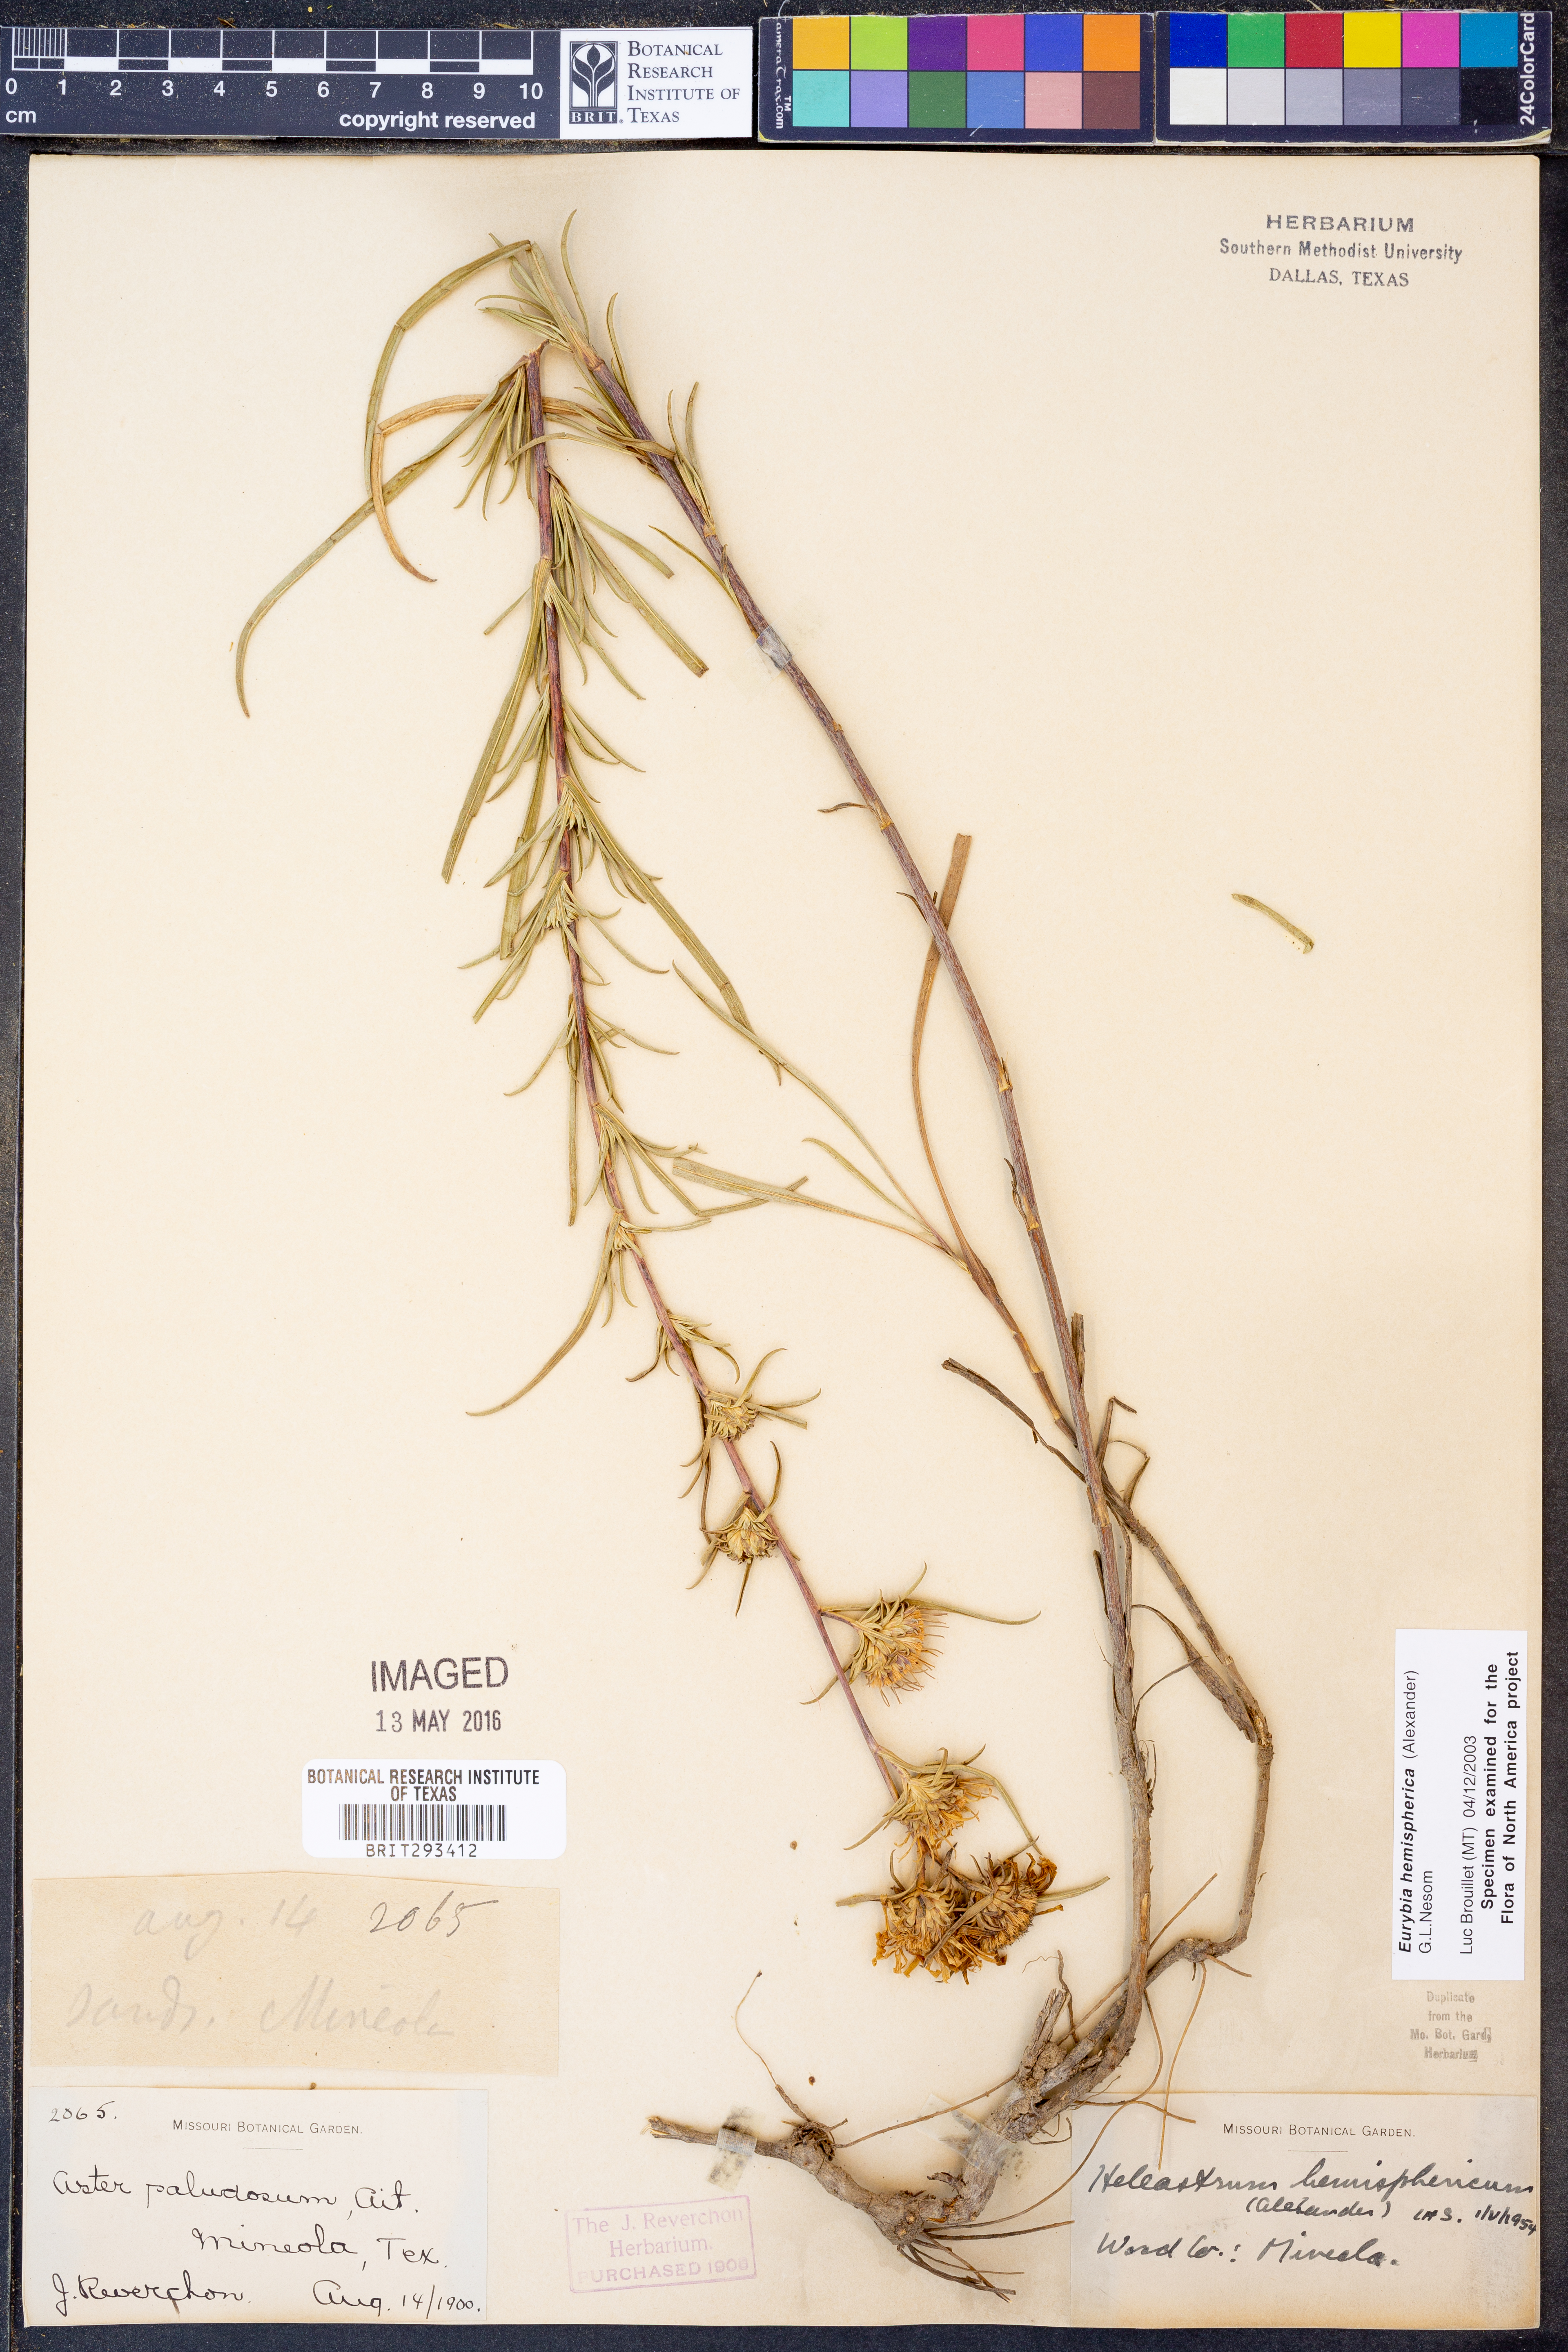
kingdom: Plantae
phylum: Tracheophyta
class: Magnoliopsida
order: Asterales
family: Asteraceae
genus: Eurybia
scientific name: Eurybia hemispherica
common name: Showy aster
